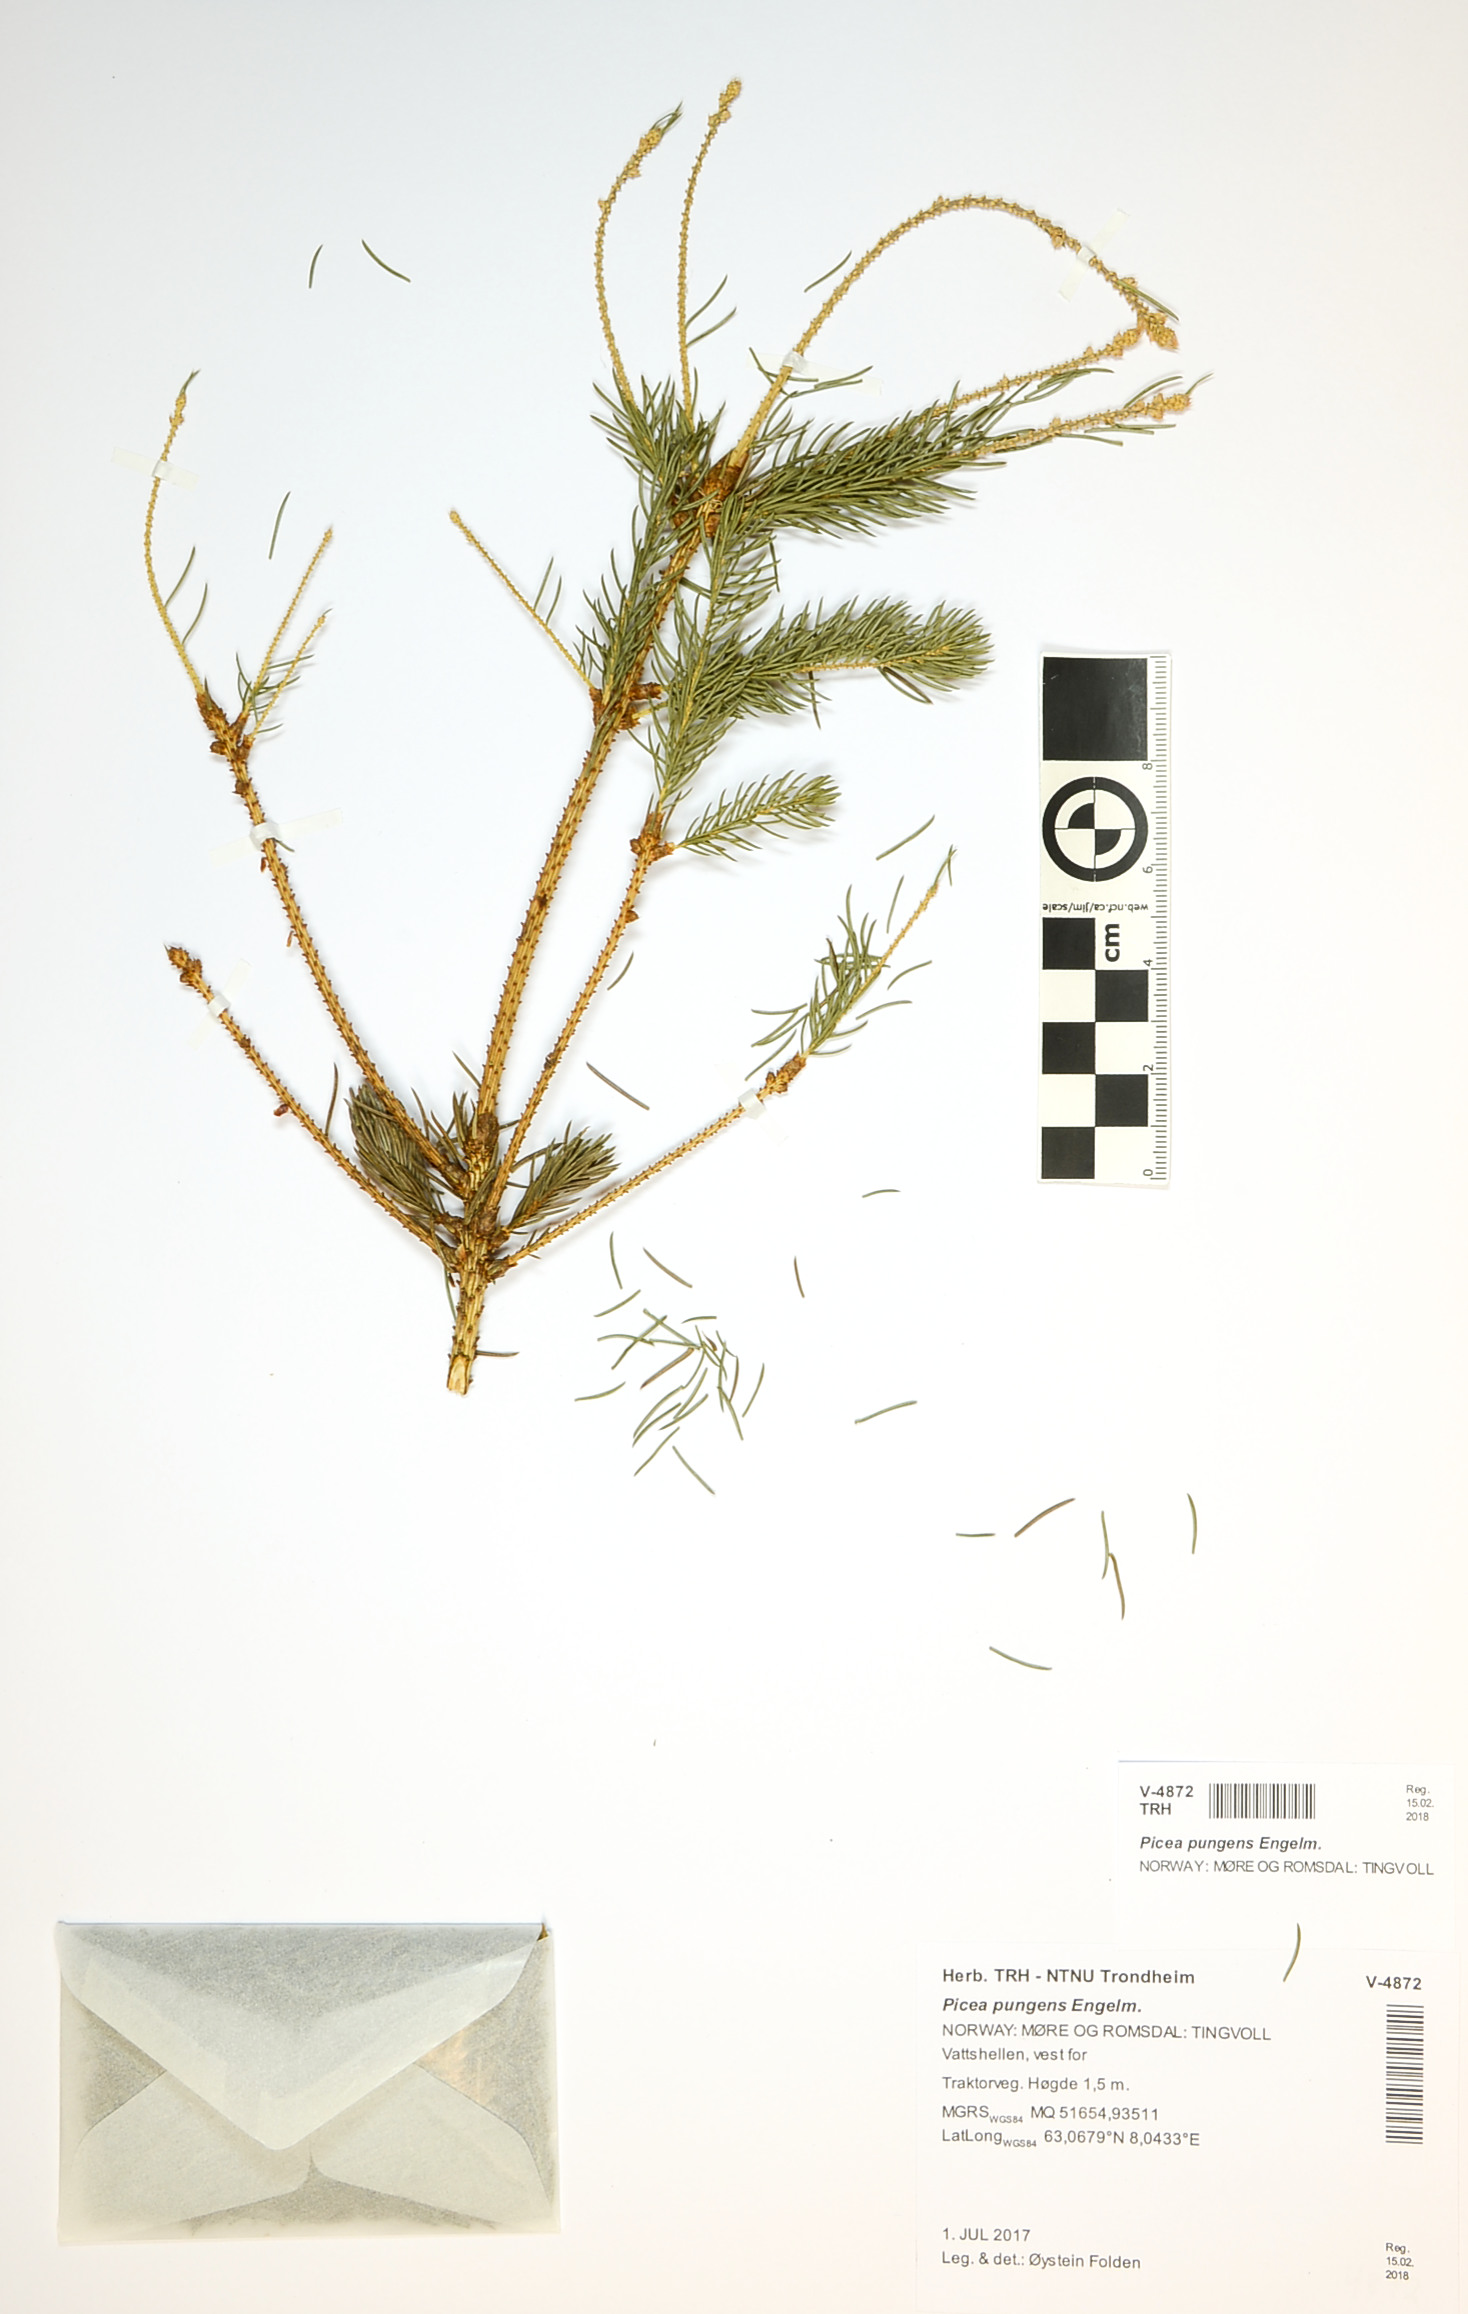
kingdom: Plantae
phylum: Tracheophyta
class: Pinopsida
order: Pinales
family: Pinaceae
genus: Picea
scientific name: Picea pungens
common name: Colorado spruce
